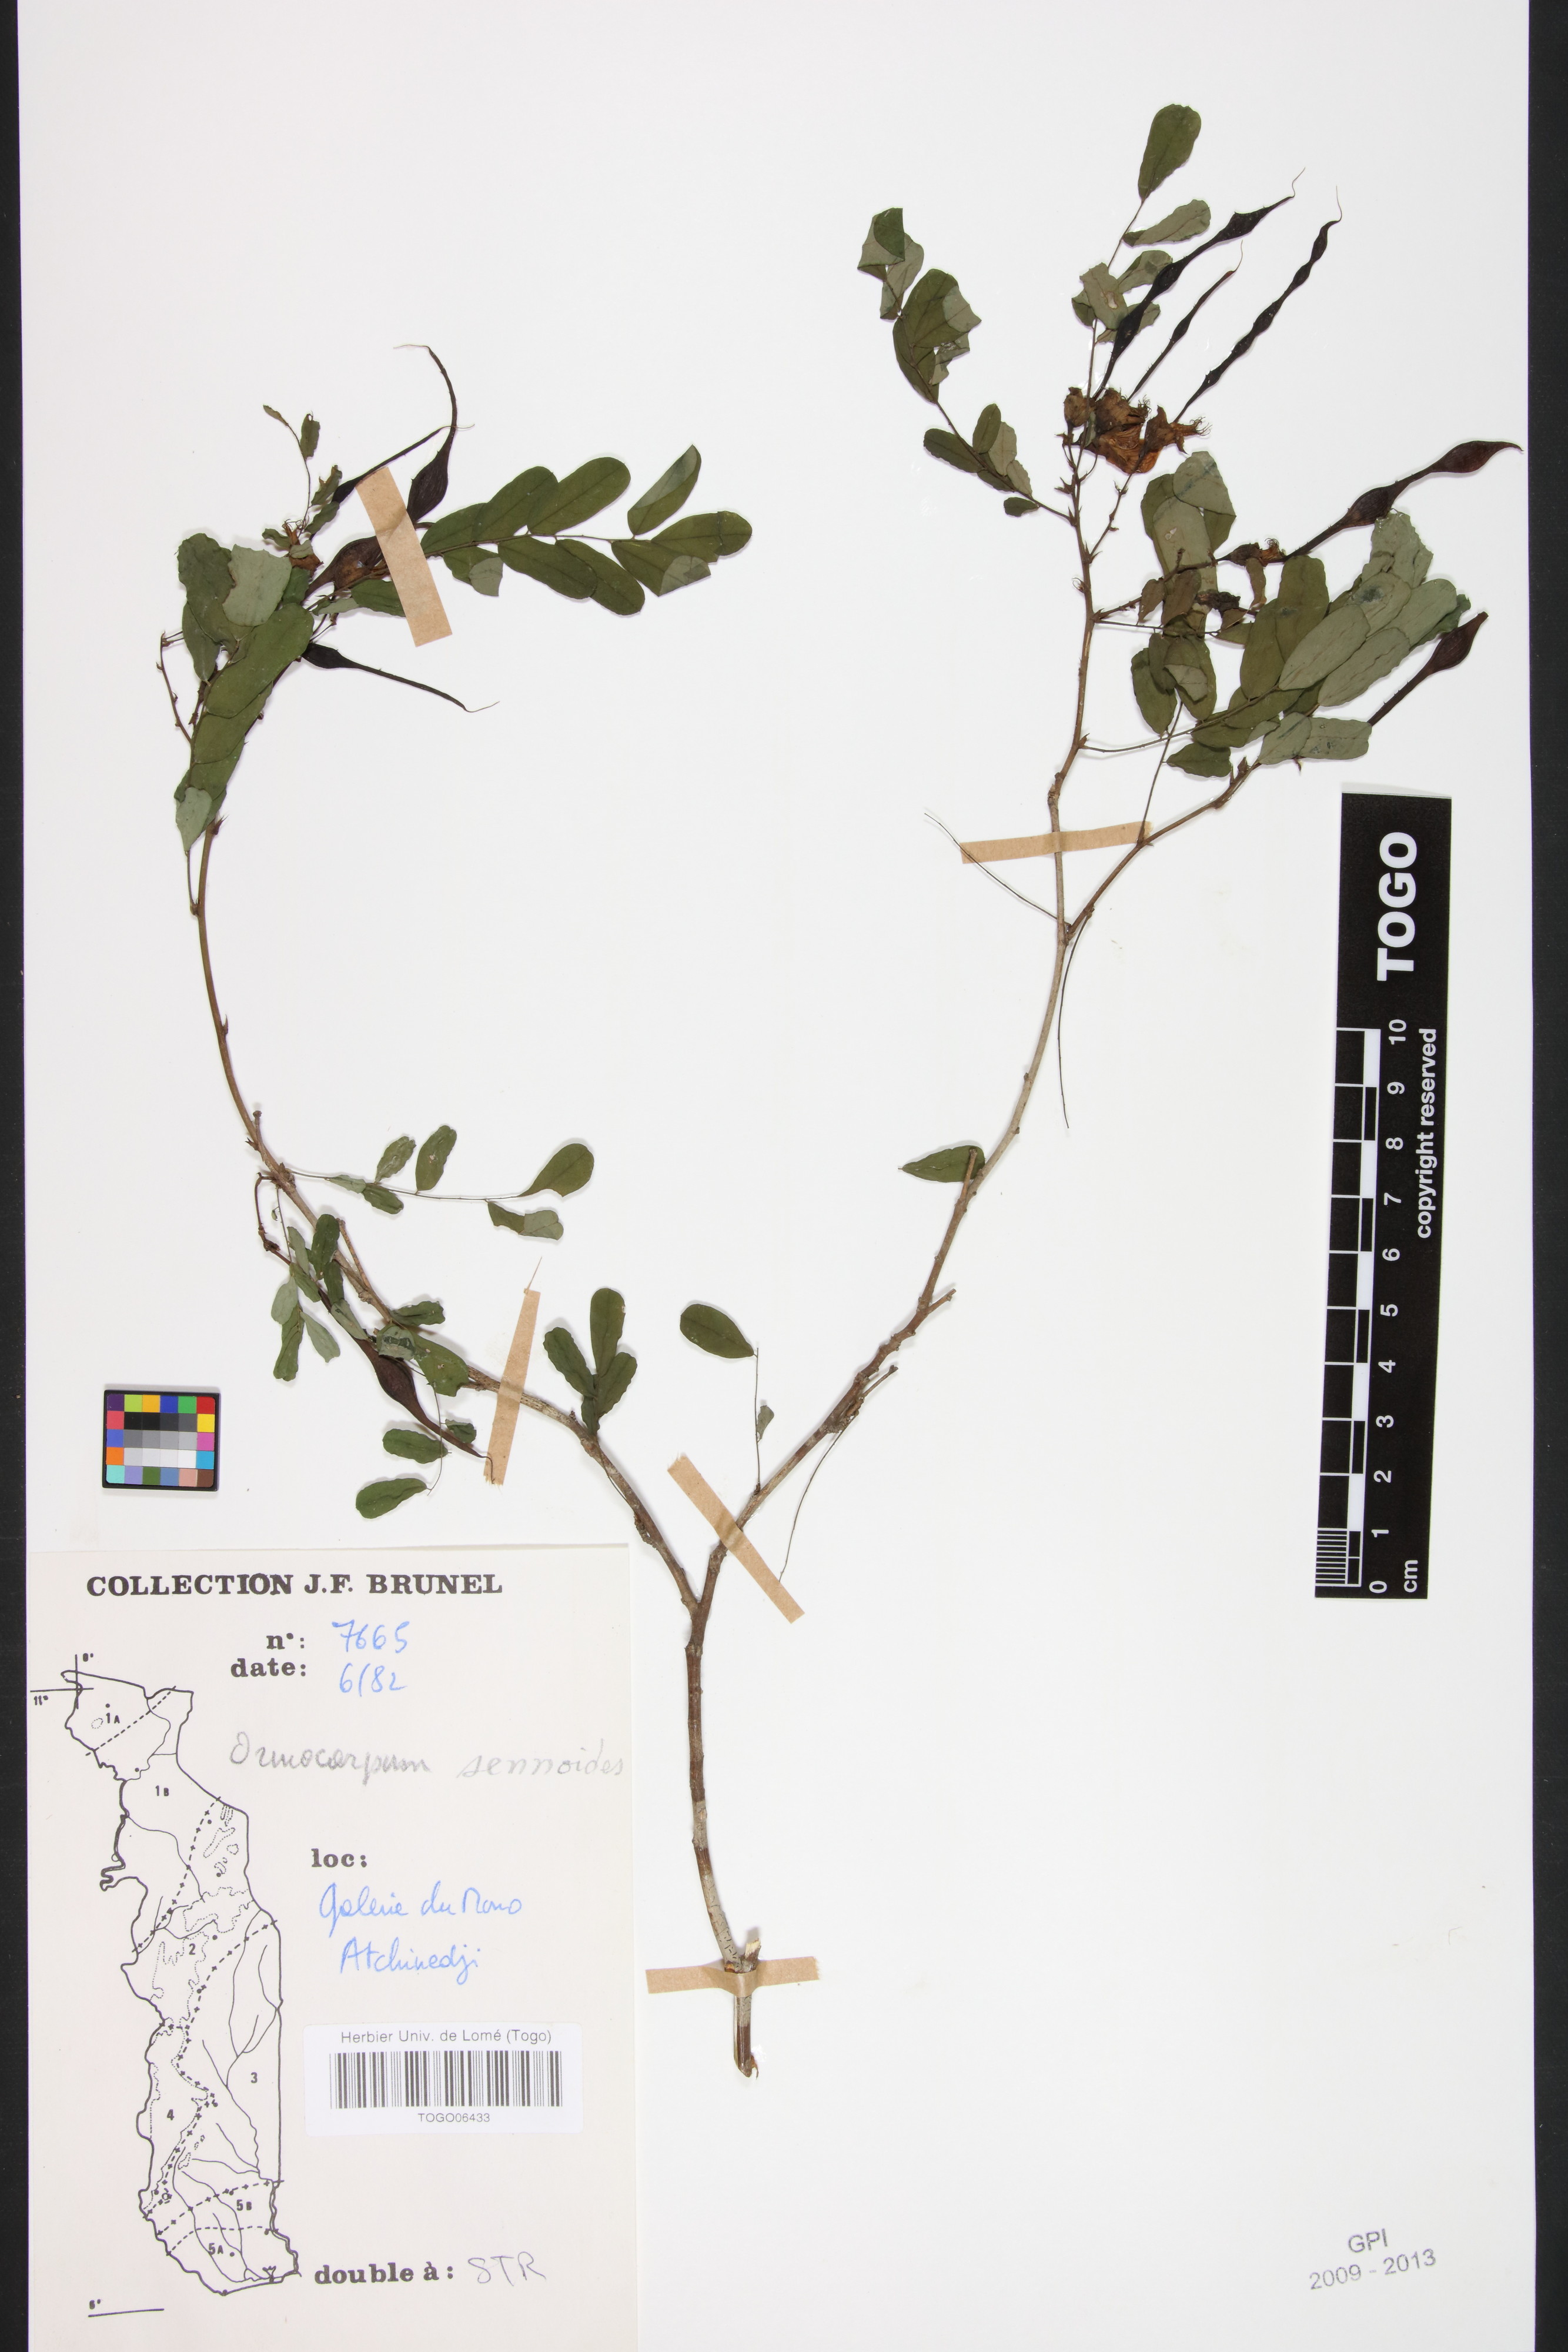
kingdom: Plantae
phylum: Tracheophyta
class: Magnoliopsida
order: Fabales
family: Fabaceae
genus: Ormocarpum
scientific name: Ormocarpum sennoides
